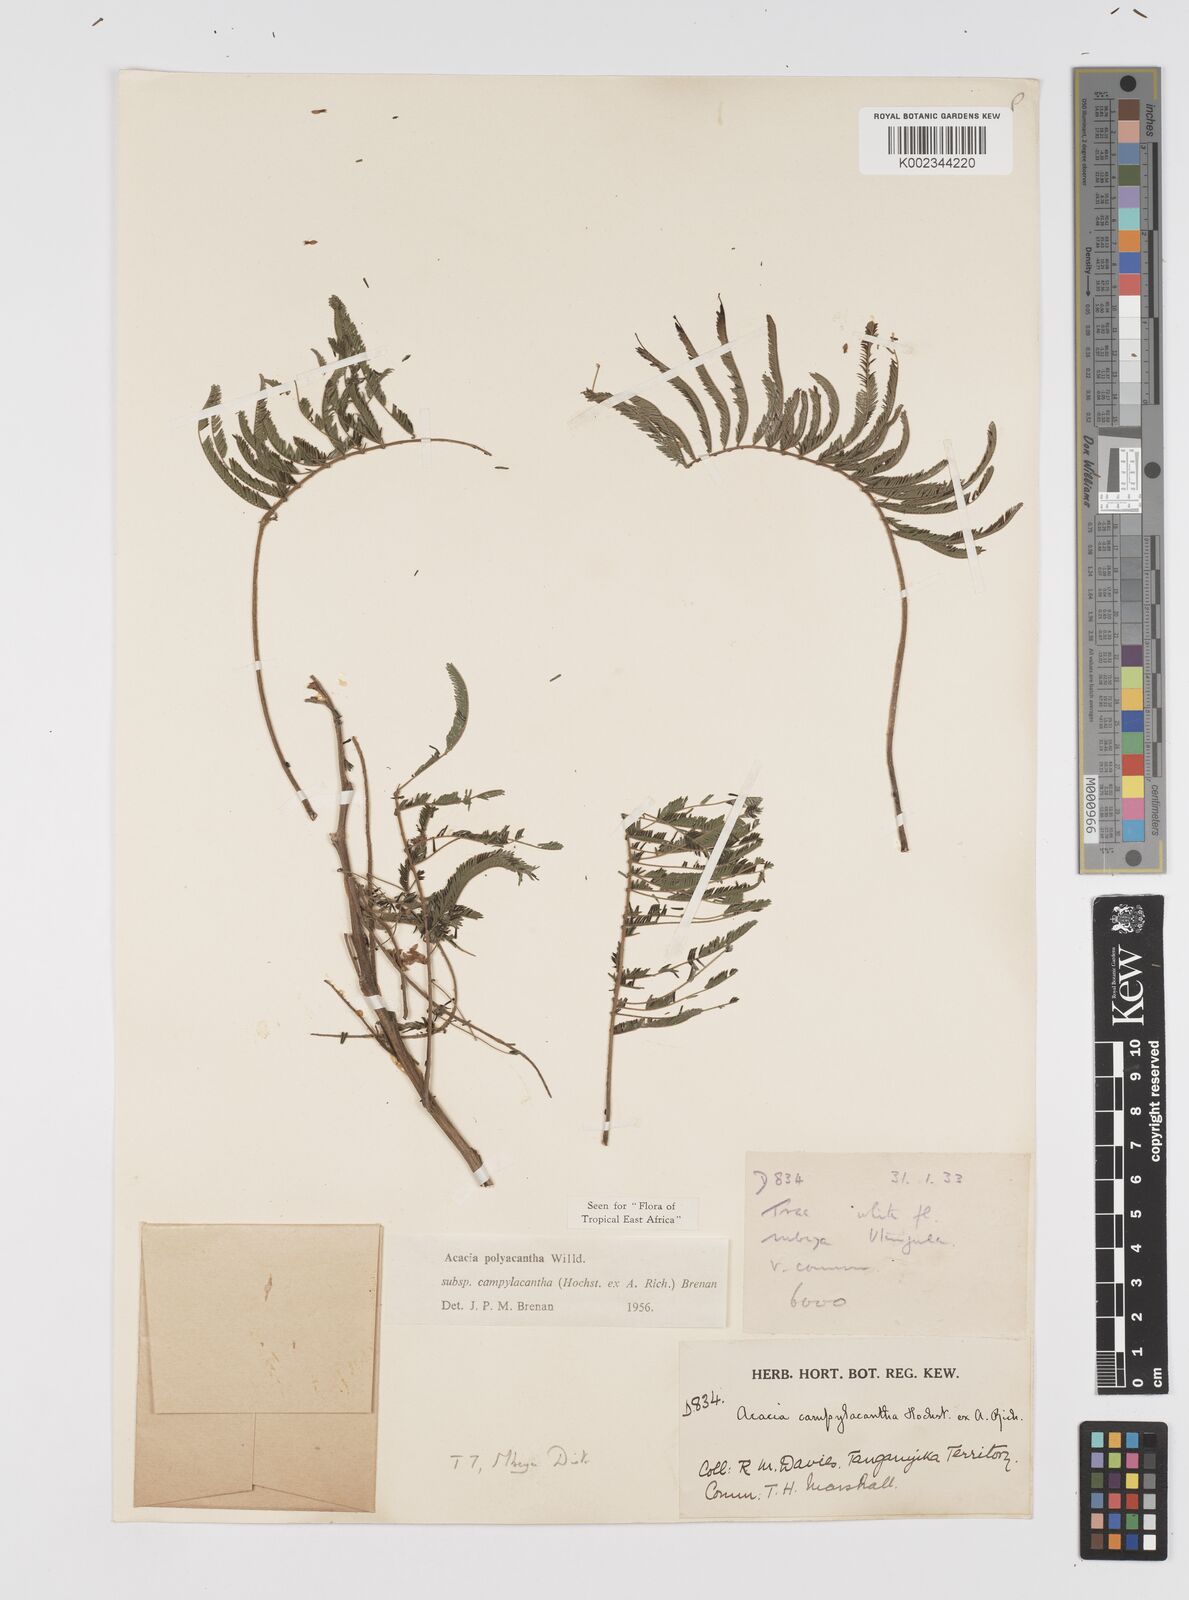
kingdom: Plantae
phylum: Tracheophyta
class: Magnoliopsida
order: Fabales
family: Fabaceae
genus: Senegalia
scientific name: Senegalia polyacantha
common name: Whitethorn
